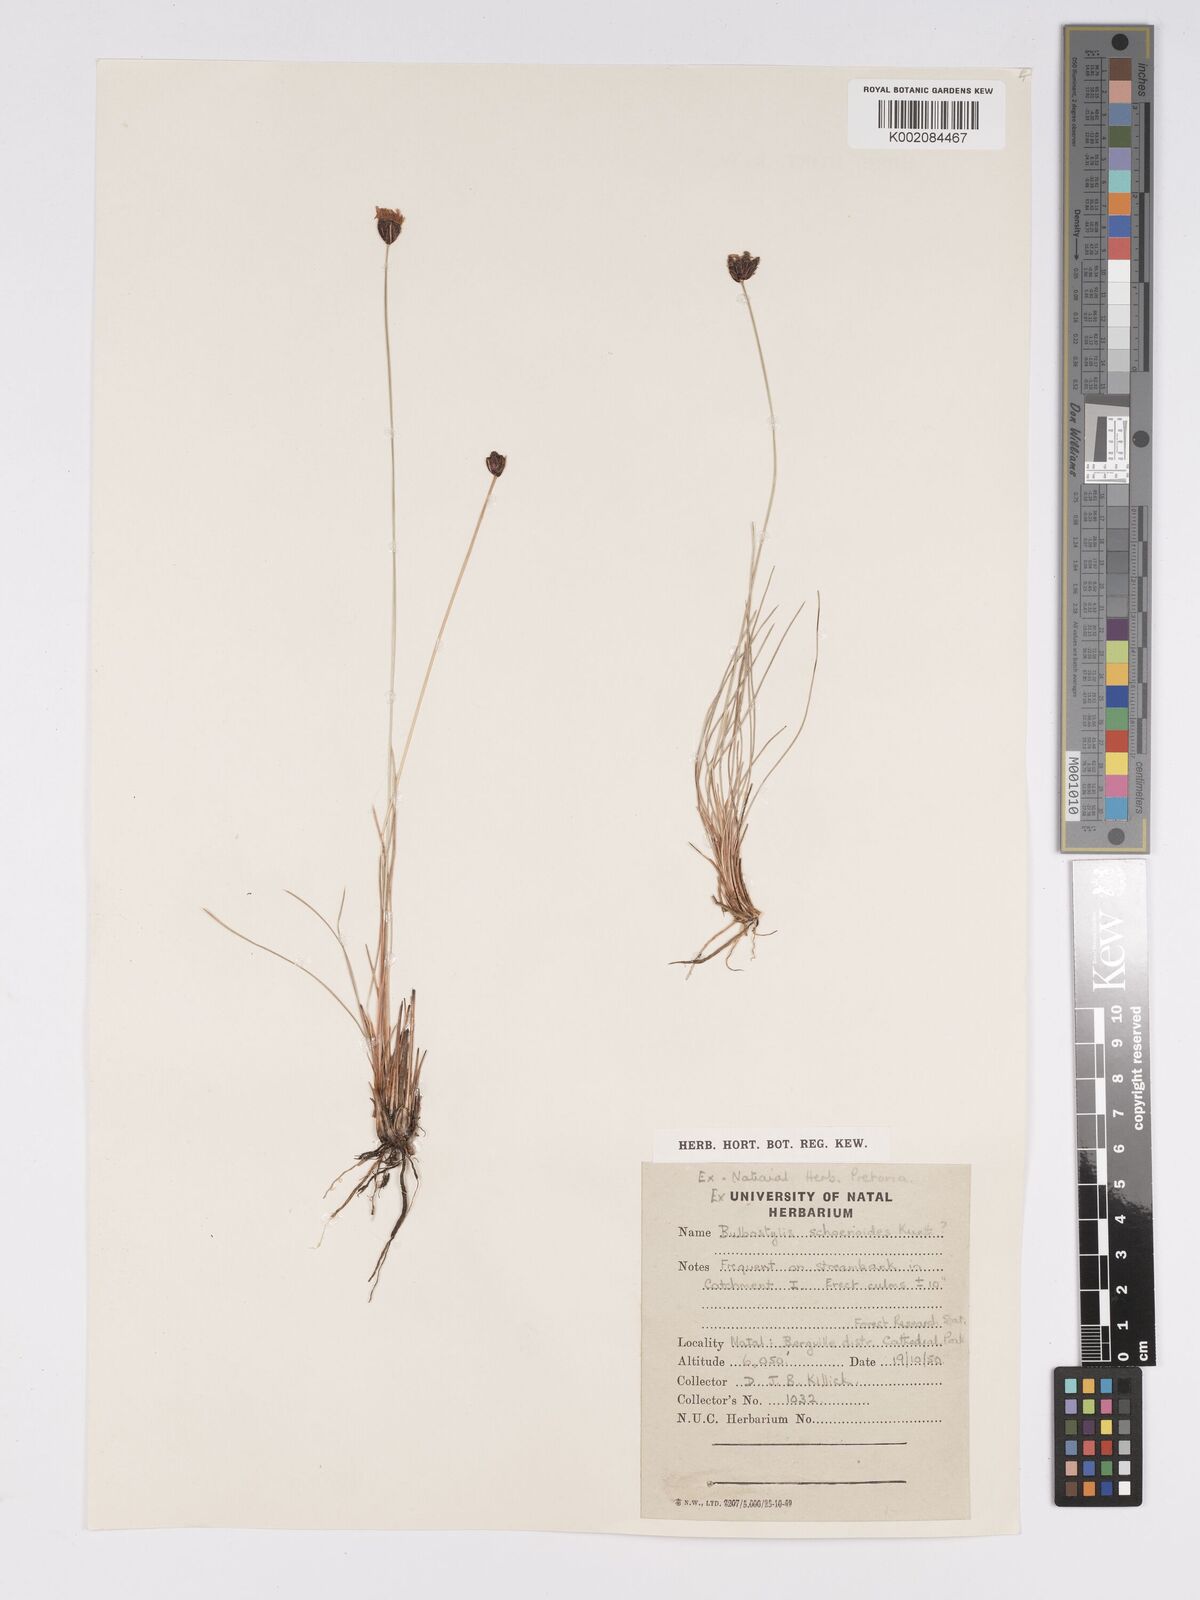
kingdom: Plantae
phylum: Tracheophyta
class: Liliopsida
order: Poales
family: Cyperaceae
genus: Bulbostylis
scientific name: Bulbostylis schoenoides
